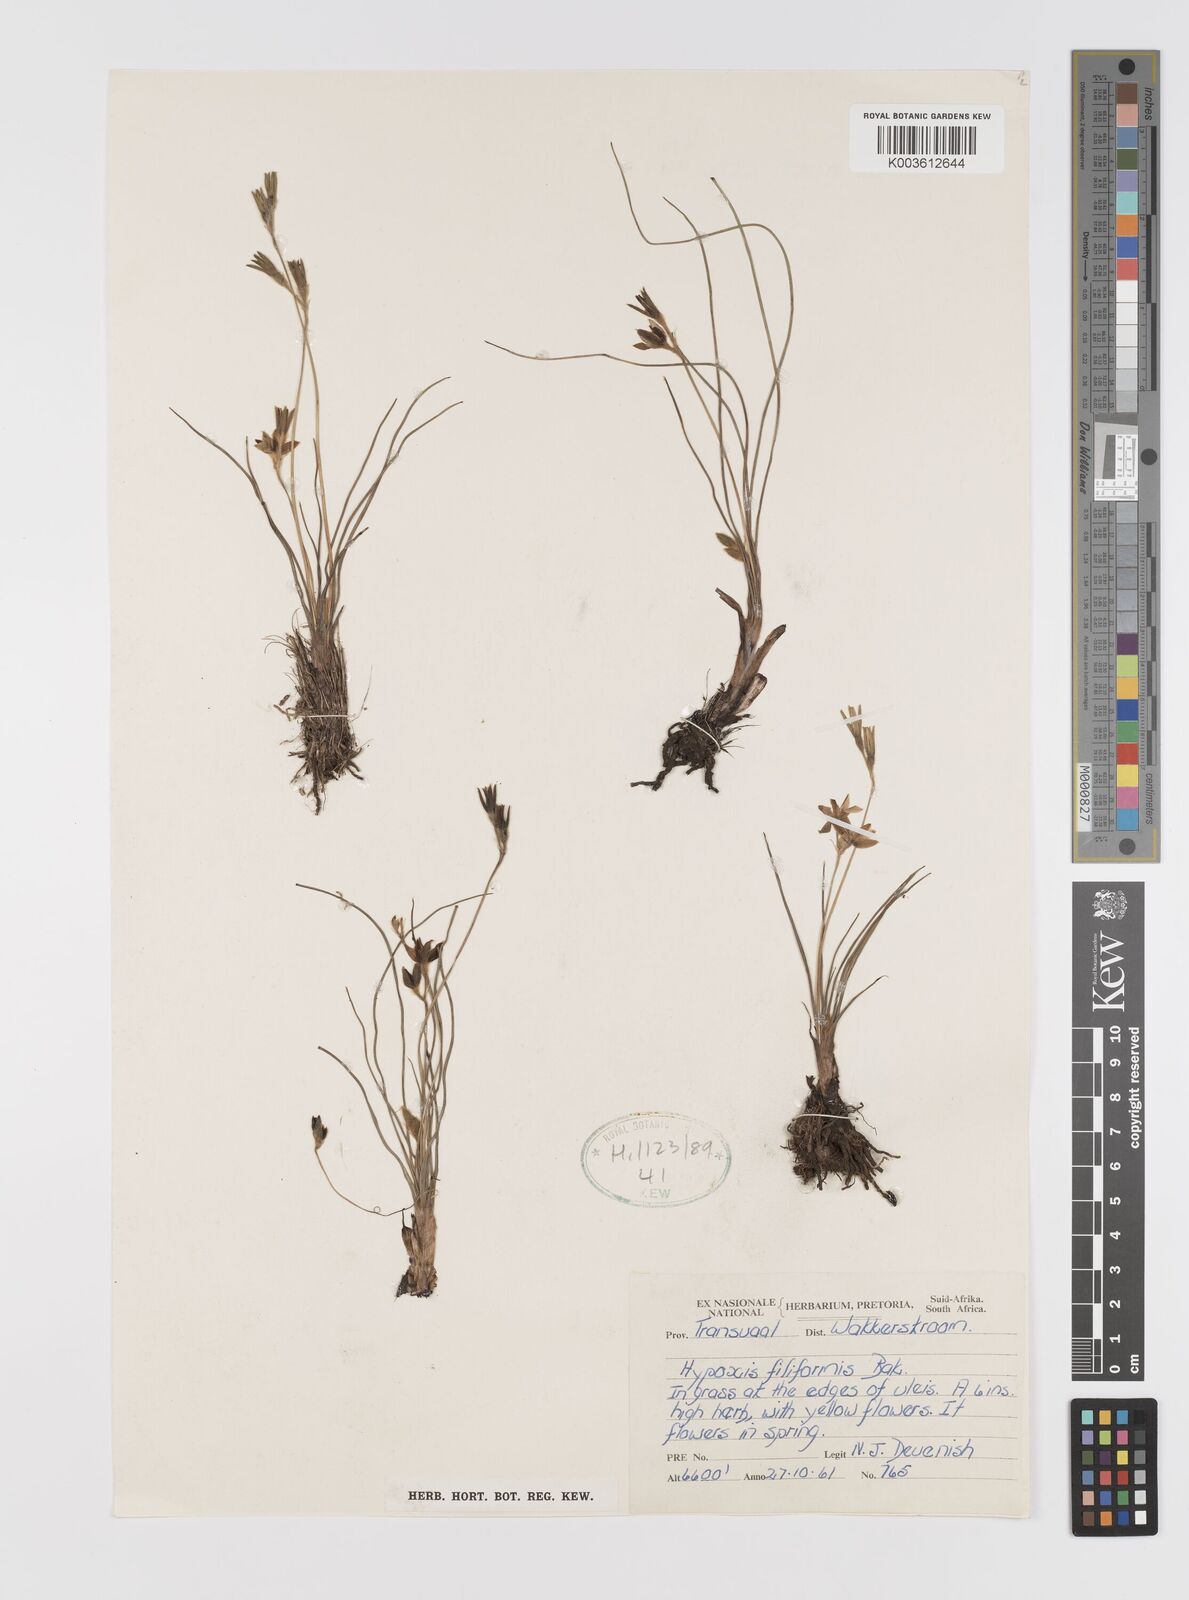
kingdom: Plantae
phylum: Tracheophyta
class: Liliopsida
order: Asparagales
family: Hypoxidaceae
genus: Hypoxis
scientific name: Hypoxis filiformis
